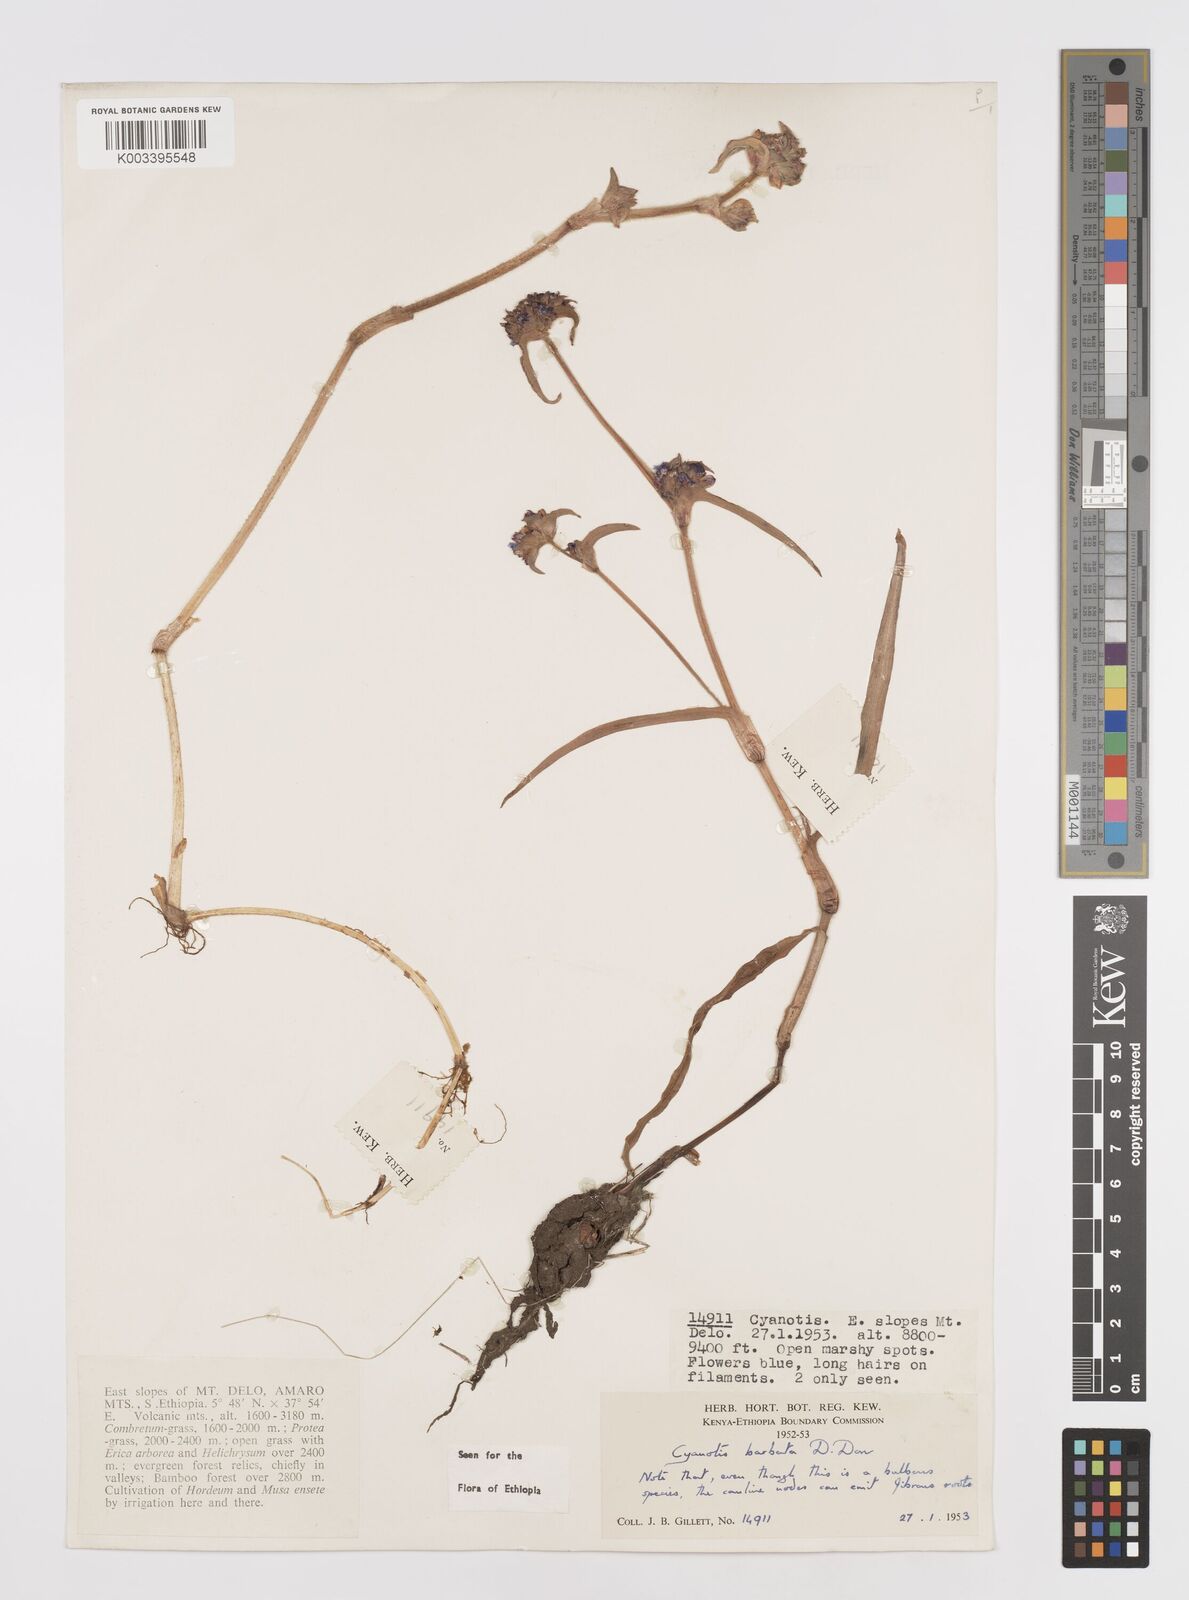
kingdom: Plantae
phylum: Tracheophyta
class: Liliopsida
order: Commelinales
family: Commelinaceae
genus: Cyanotis
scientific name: Cyanotis vaga
